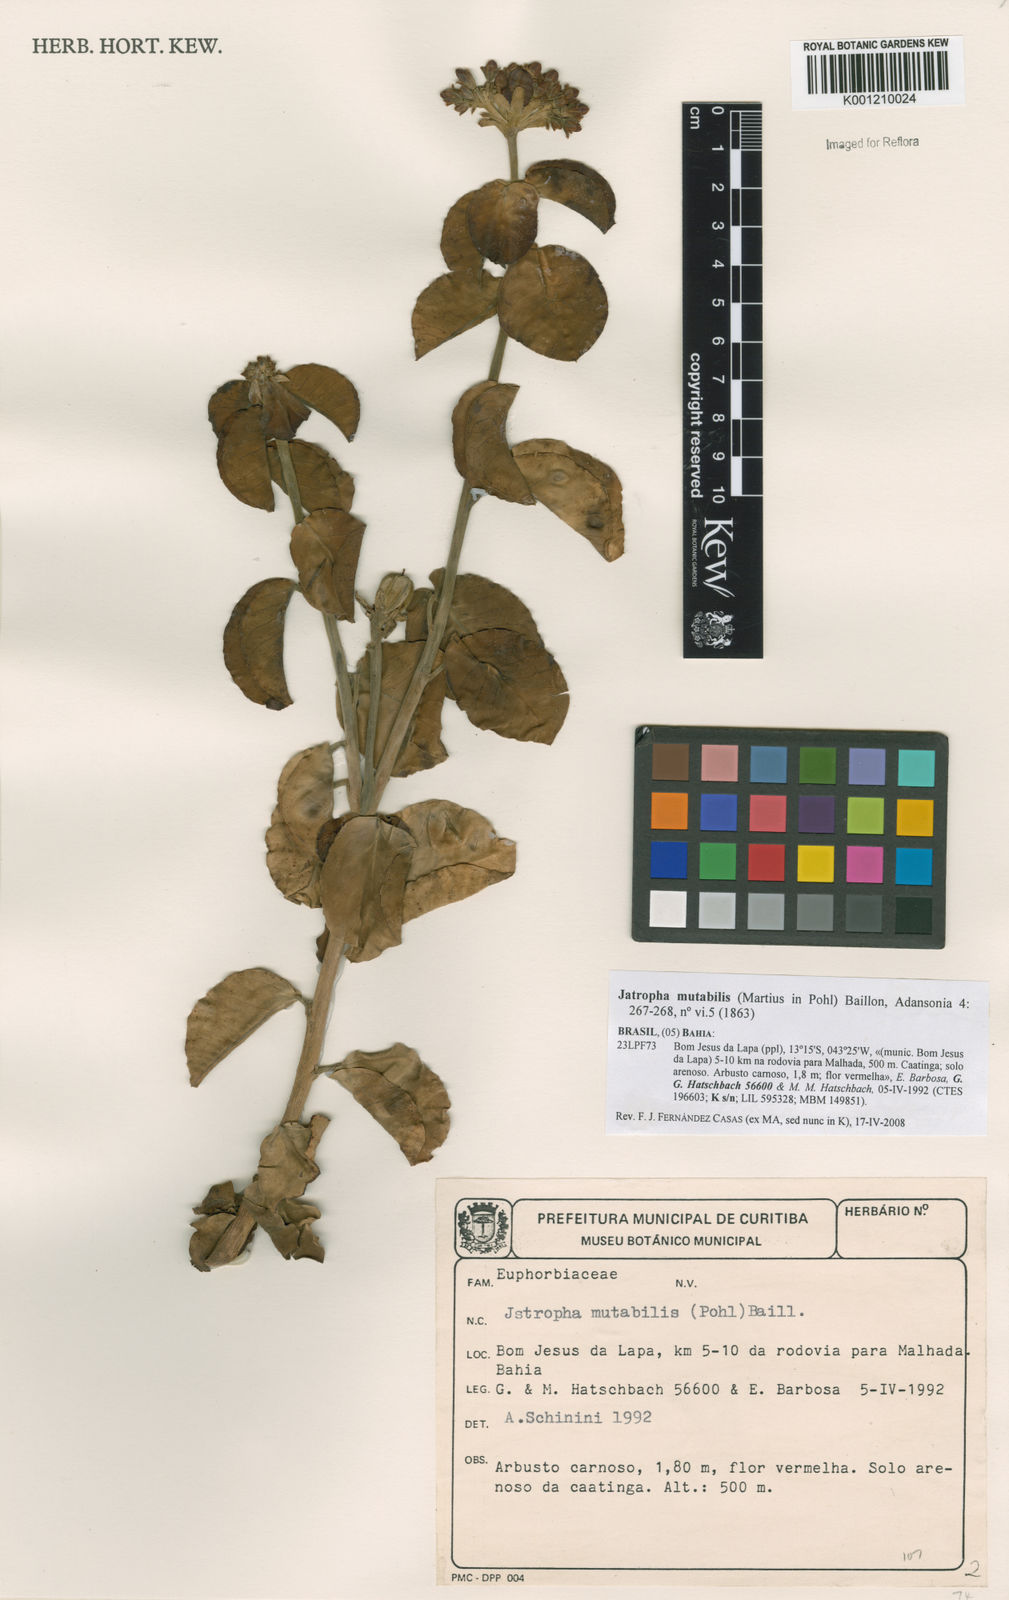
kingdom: Plantae
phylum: Tracheophyta
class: Magnoliopsida
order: Malpighiales
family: Euphorbiaceae
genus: Jatropha
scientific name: Jatropha mutabilis
